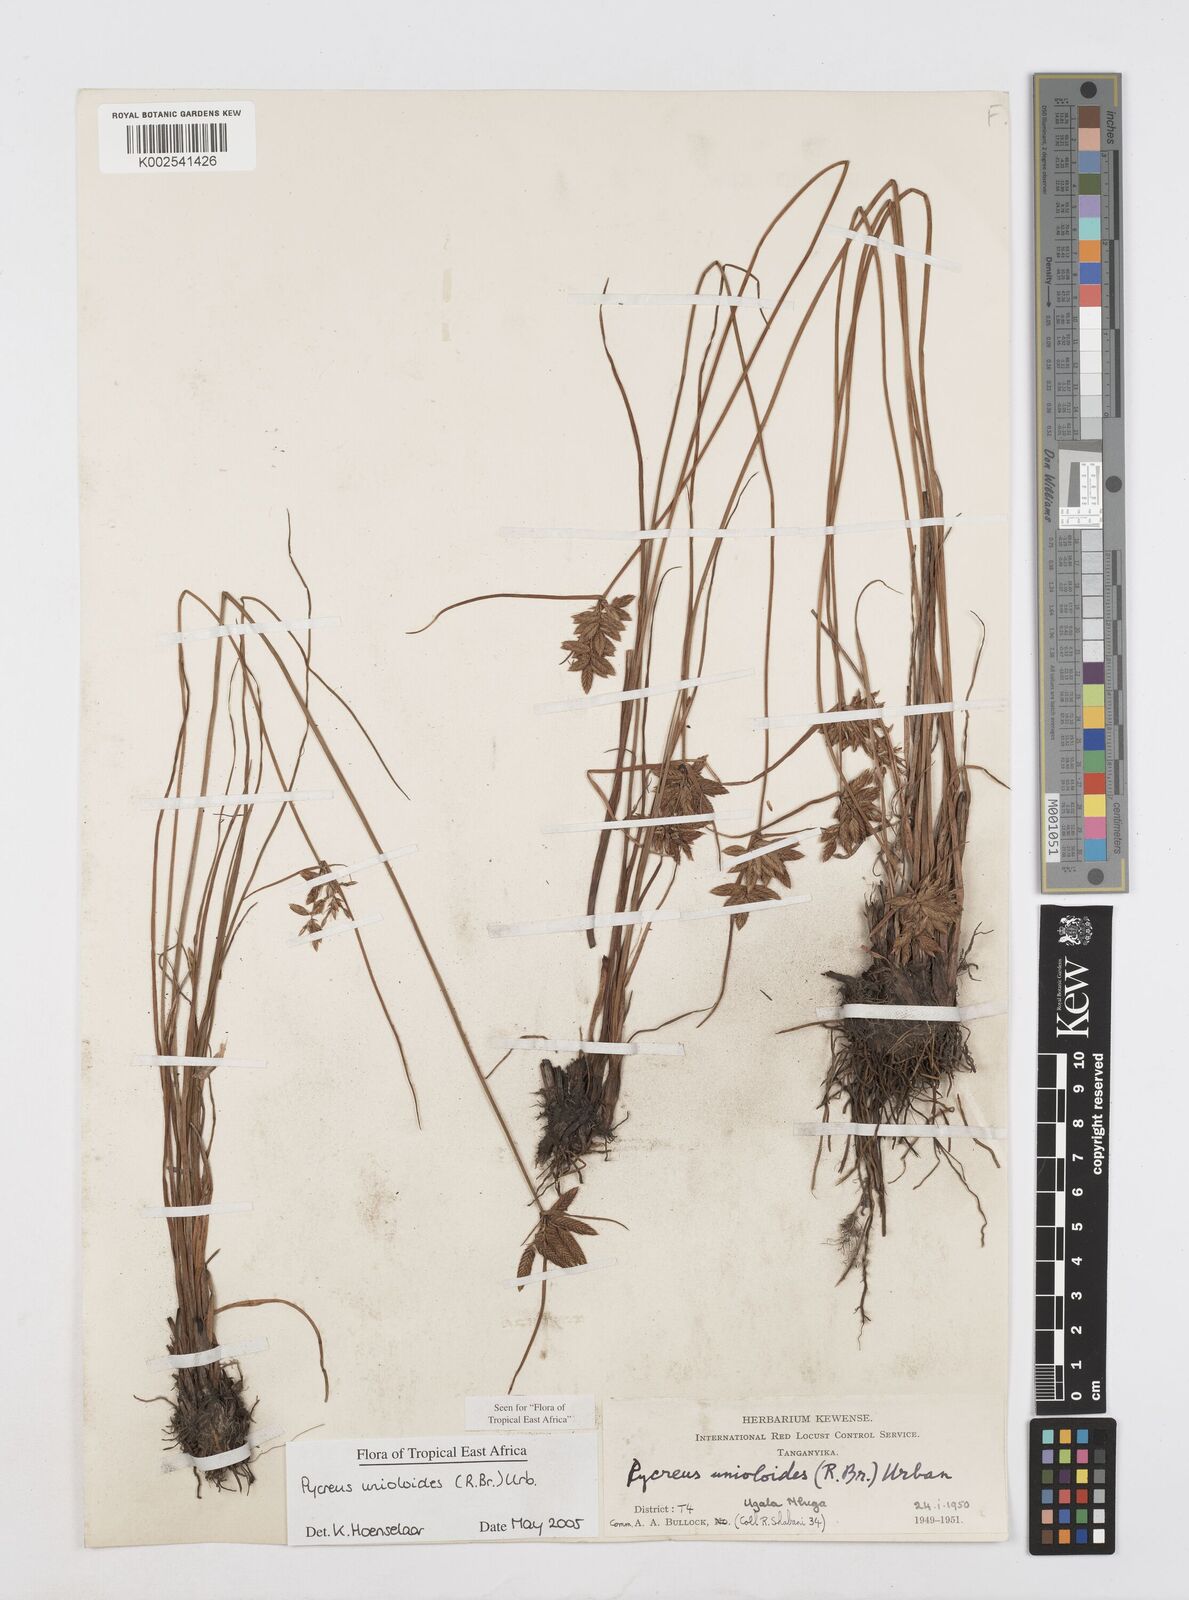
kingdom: Plantae
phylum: Tracheophyta
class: Liliopsida
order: Poales
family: Cyperaceae
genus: Cyperus
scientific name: Cyperus unioloides
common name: Uniola flatsedge
